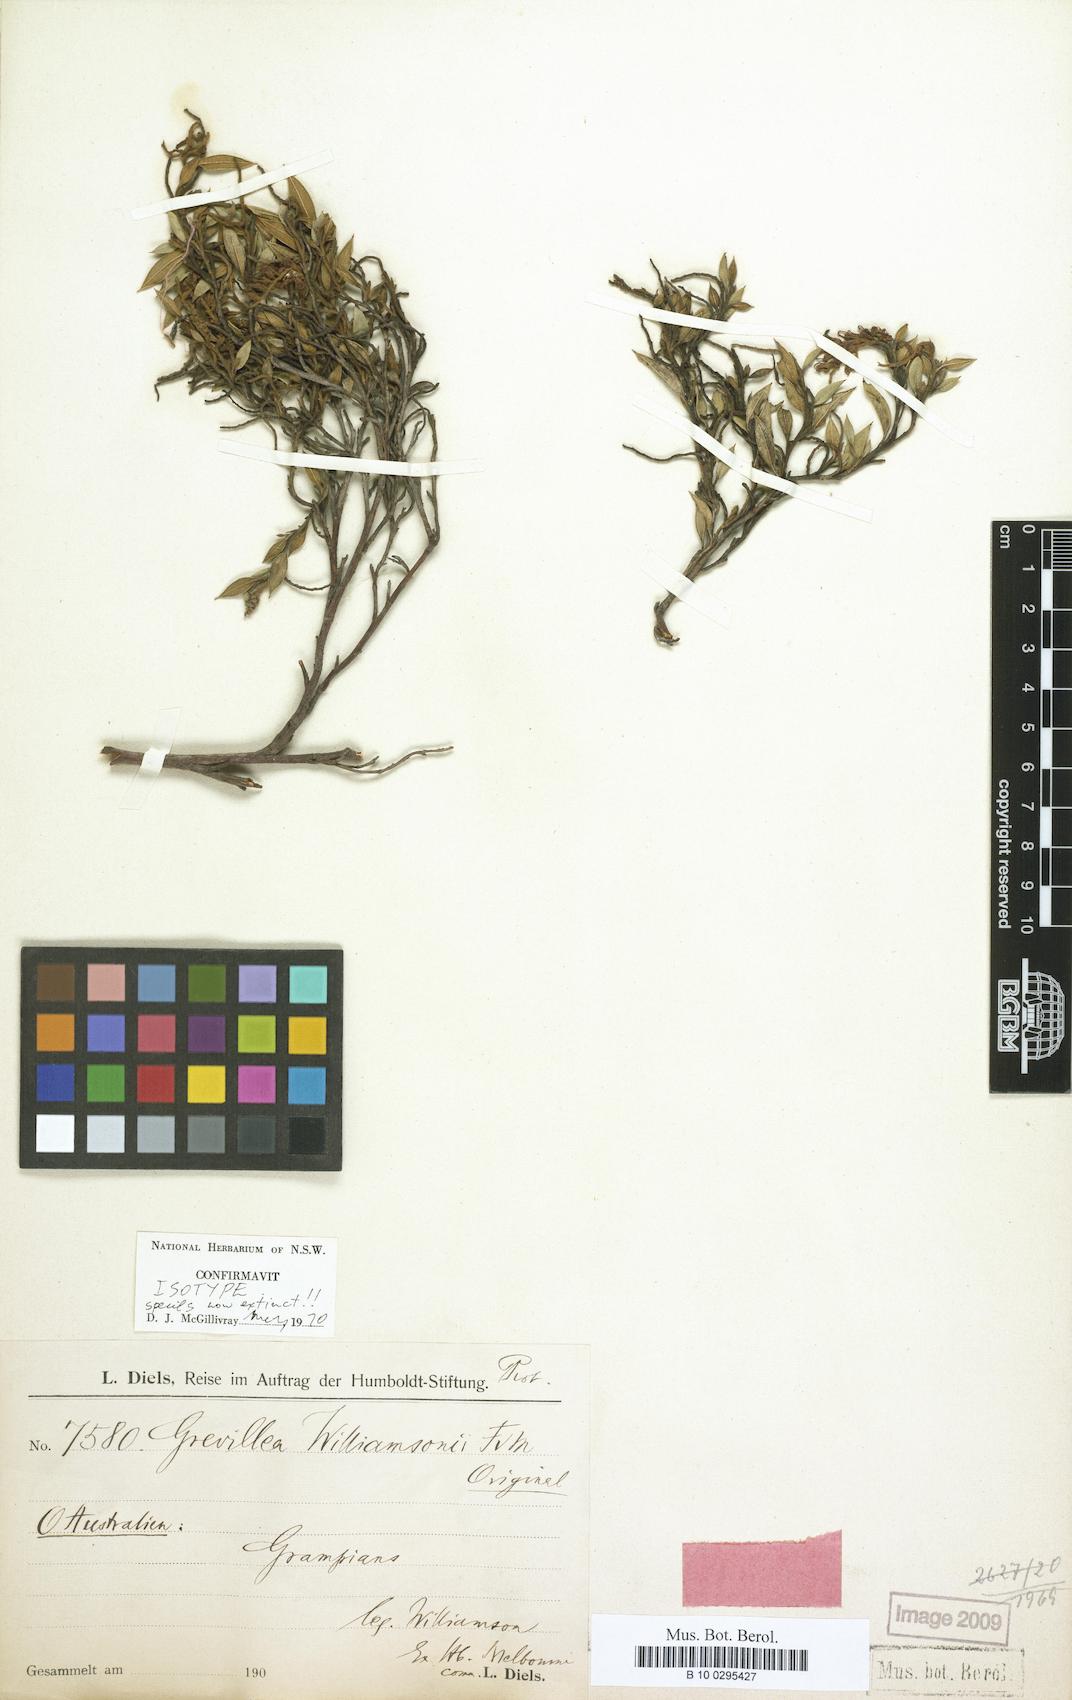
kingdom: Plantae
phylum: Tracheophyta
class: Magnoliopsida
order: Proteales
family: Proteaceae
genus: Grevillea
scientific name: Grevillea williamsonii
